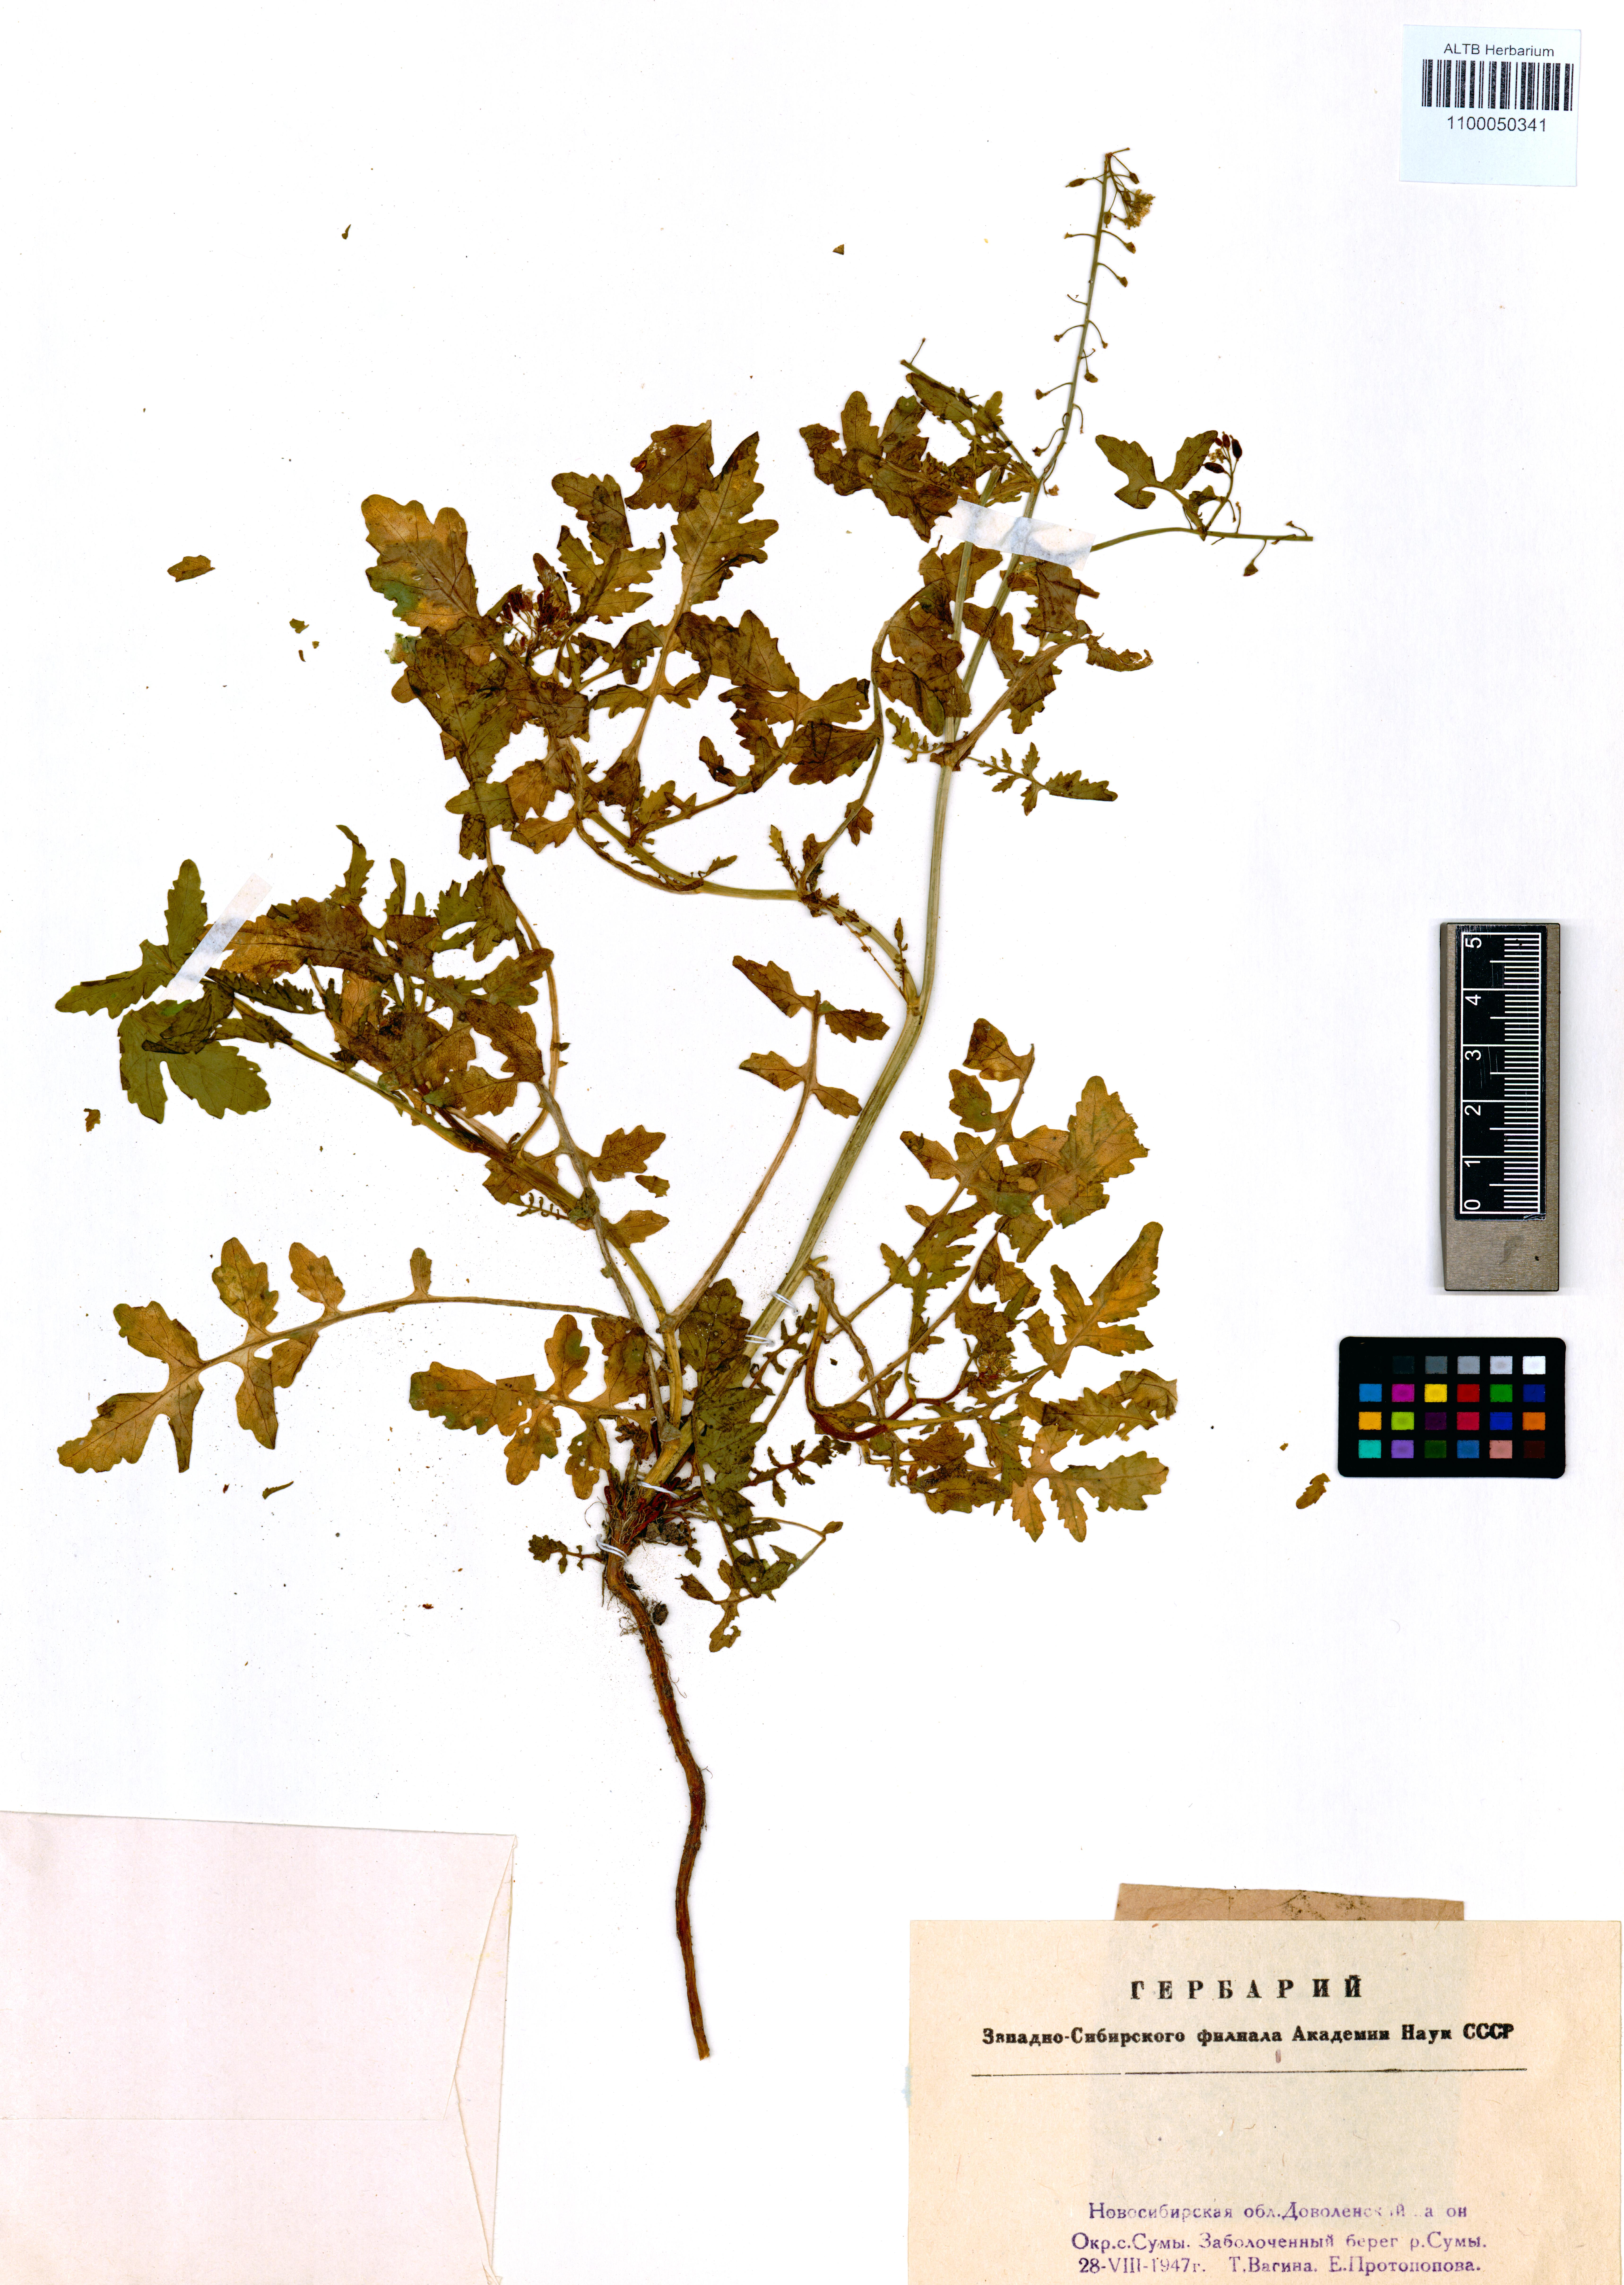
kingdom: Plantae
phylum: Tracheophyta
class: Magnoliopsida
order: Brassicales
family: Brassicaceae
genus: Rorippa
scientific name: Rorippa palustris
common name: Marsh yellow-cress
